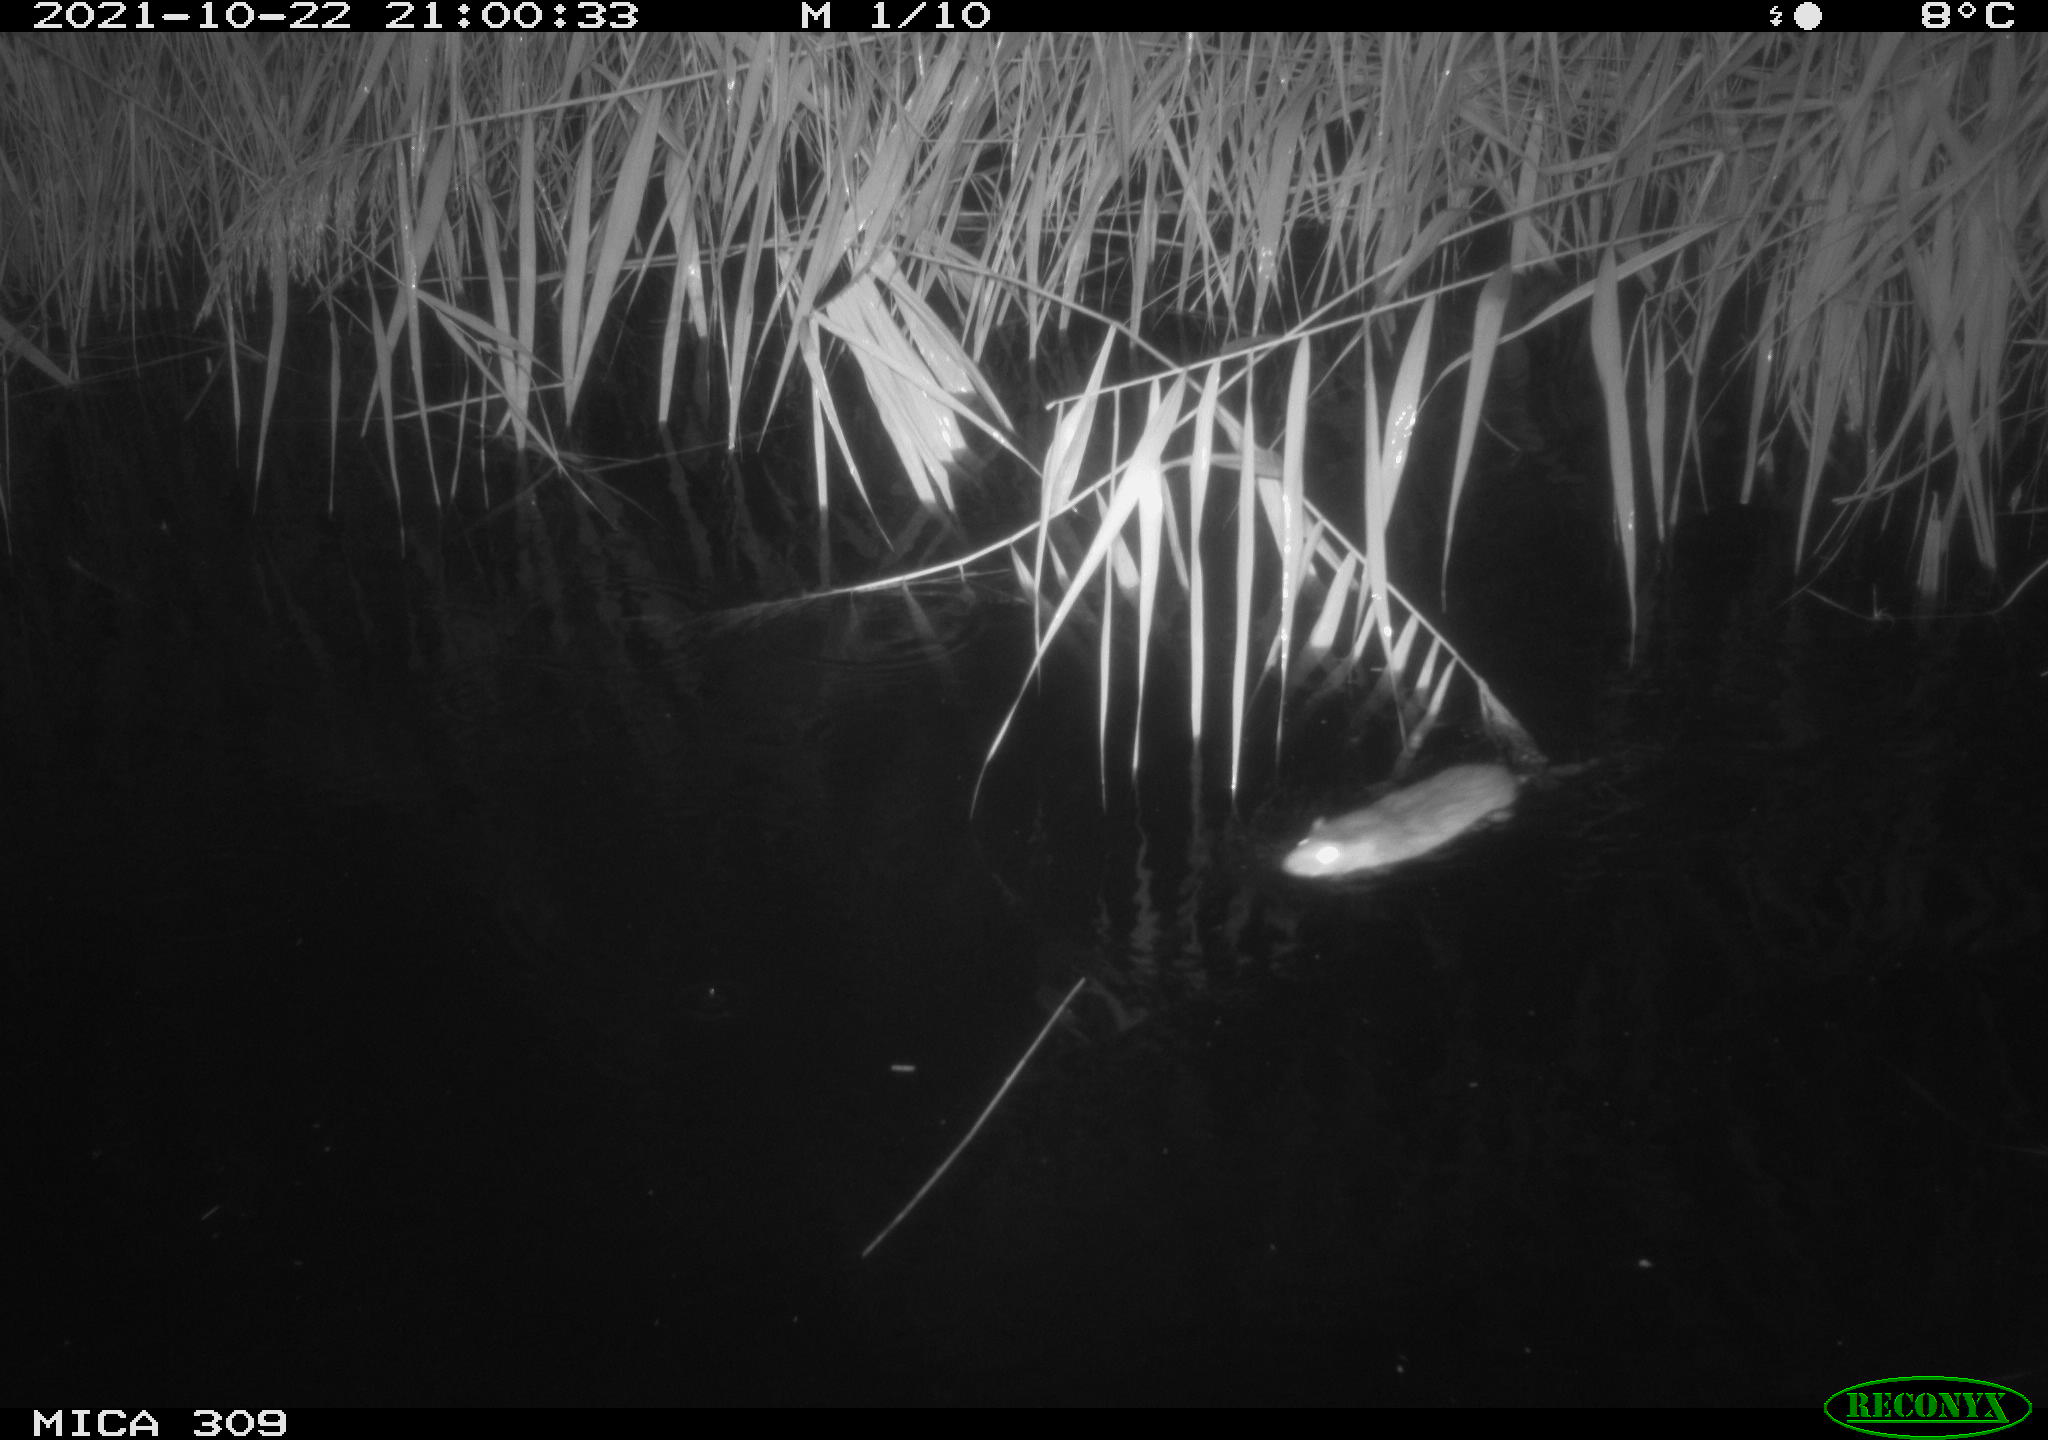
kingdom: Animalia
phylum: Chordata
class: Mammalia
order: Rodentia
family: Muridae
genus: Rattus
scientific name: Rattus norvegicus
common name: Brown rat
